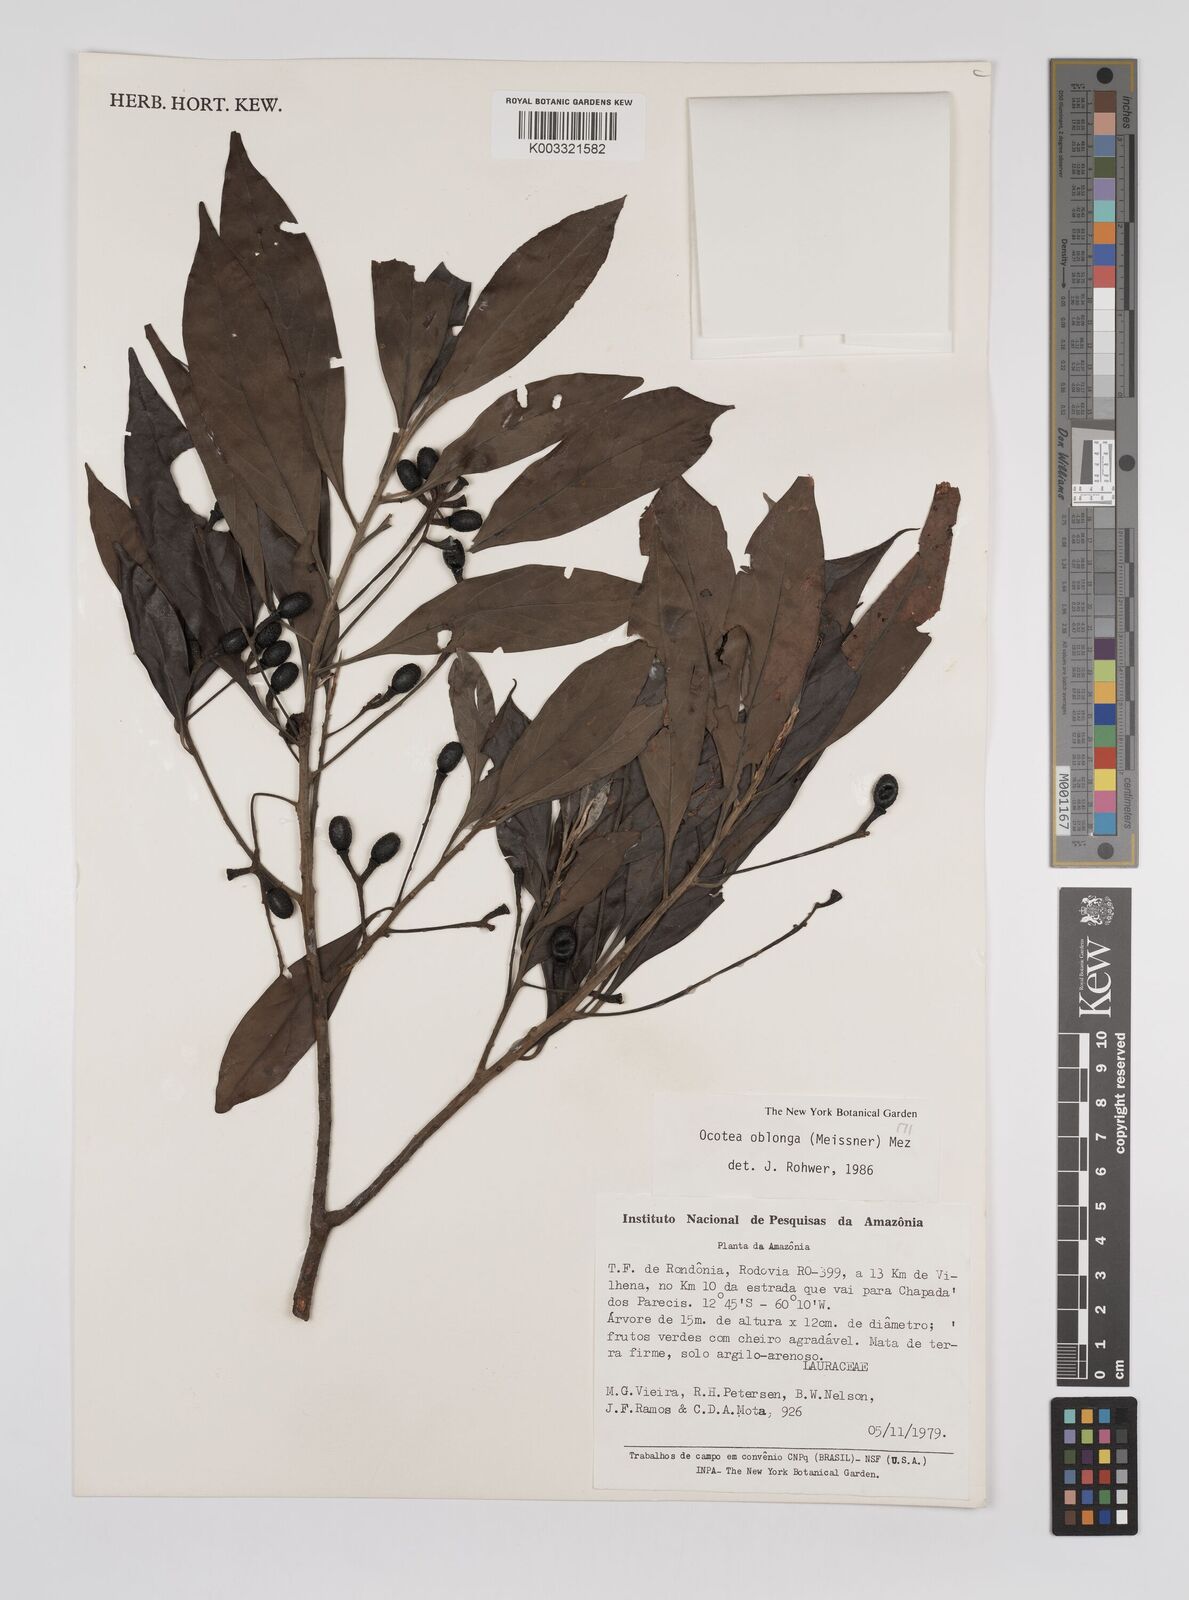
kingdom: Plantae
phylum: Tracheophyta
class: Magnoliopsida
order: Laurales
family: Lauraceae
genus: Ocotea
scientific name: Ocotea oblonga
